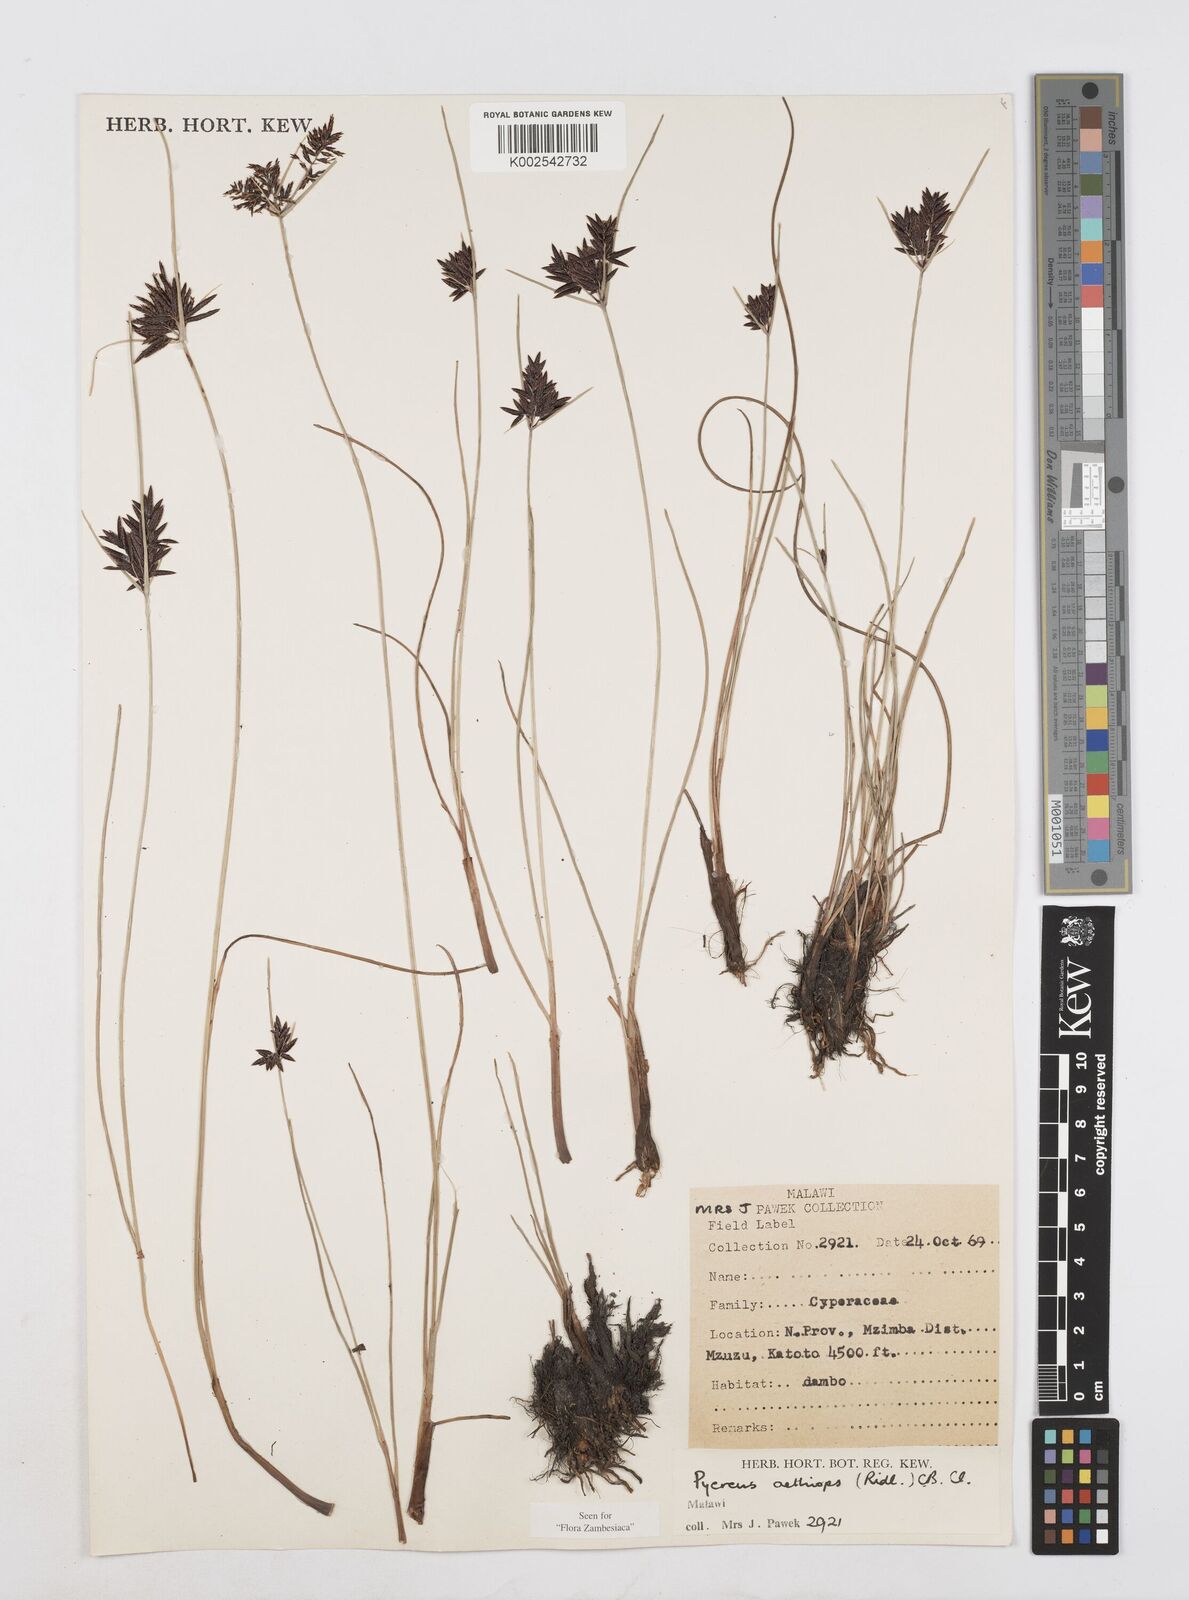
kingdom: Plantae
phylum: Tracheophyta
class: Liliopsida
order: Poales
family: Cyperaceae
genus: Cyperus
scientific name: Cyperus aethiops
